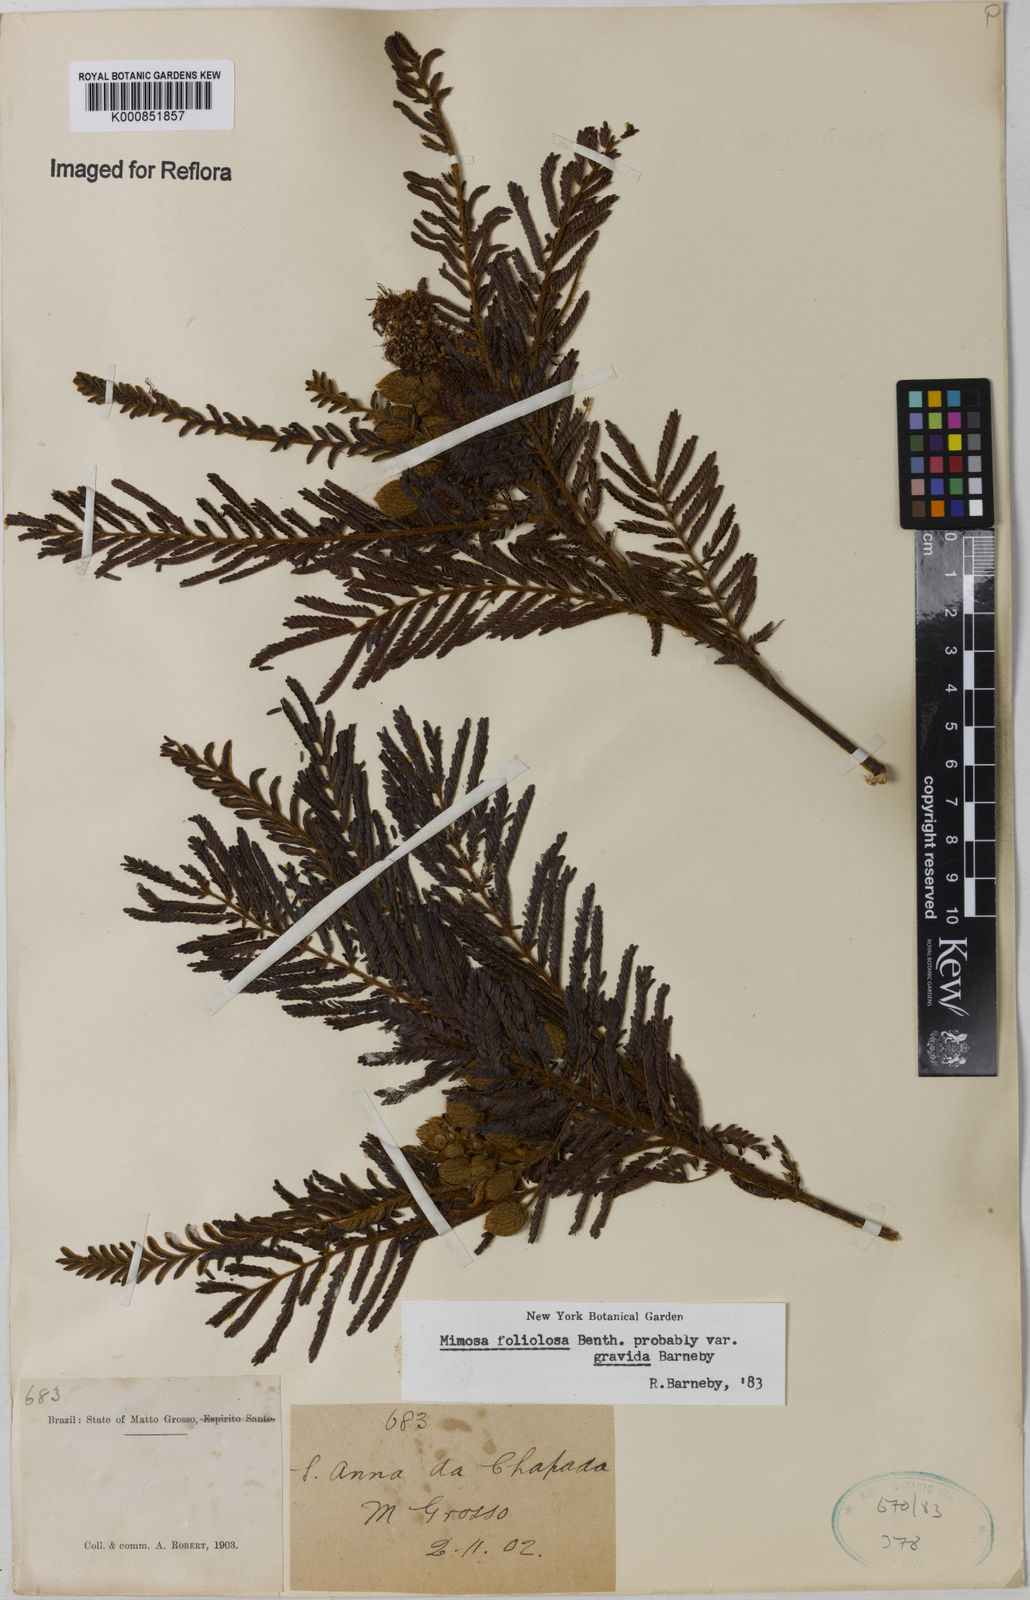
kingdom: Plantae
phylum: Tracheophyta
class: Magnoliopsida
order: Fabales
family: Fabaceae
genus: Mimosa
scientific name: Mimosa foliolosa
